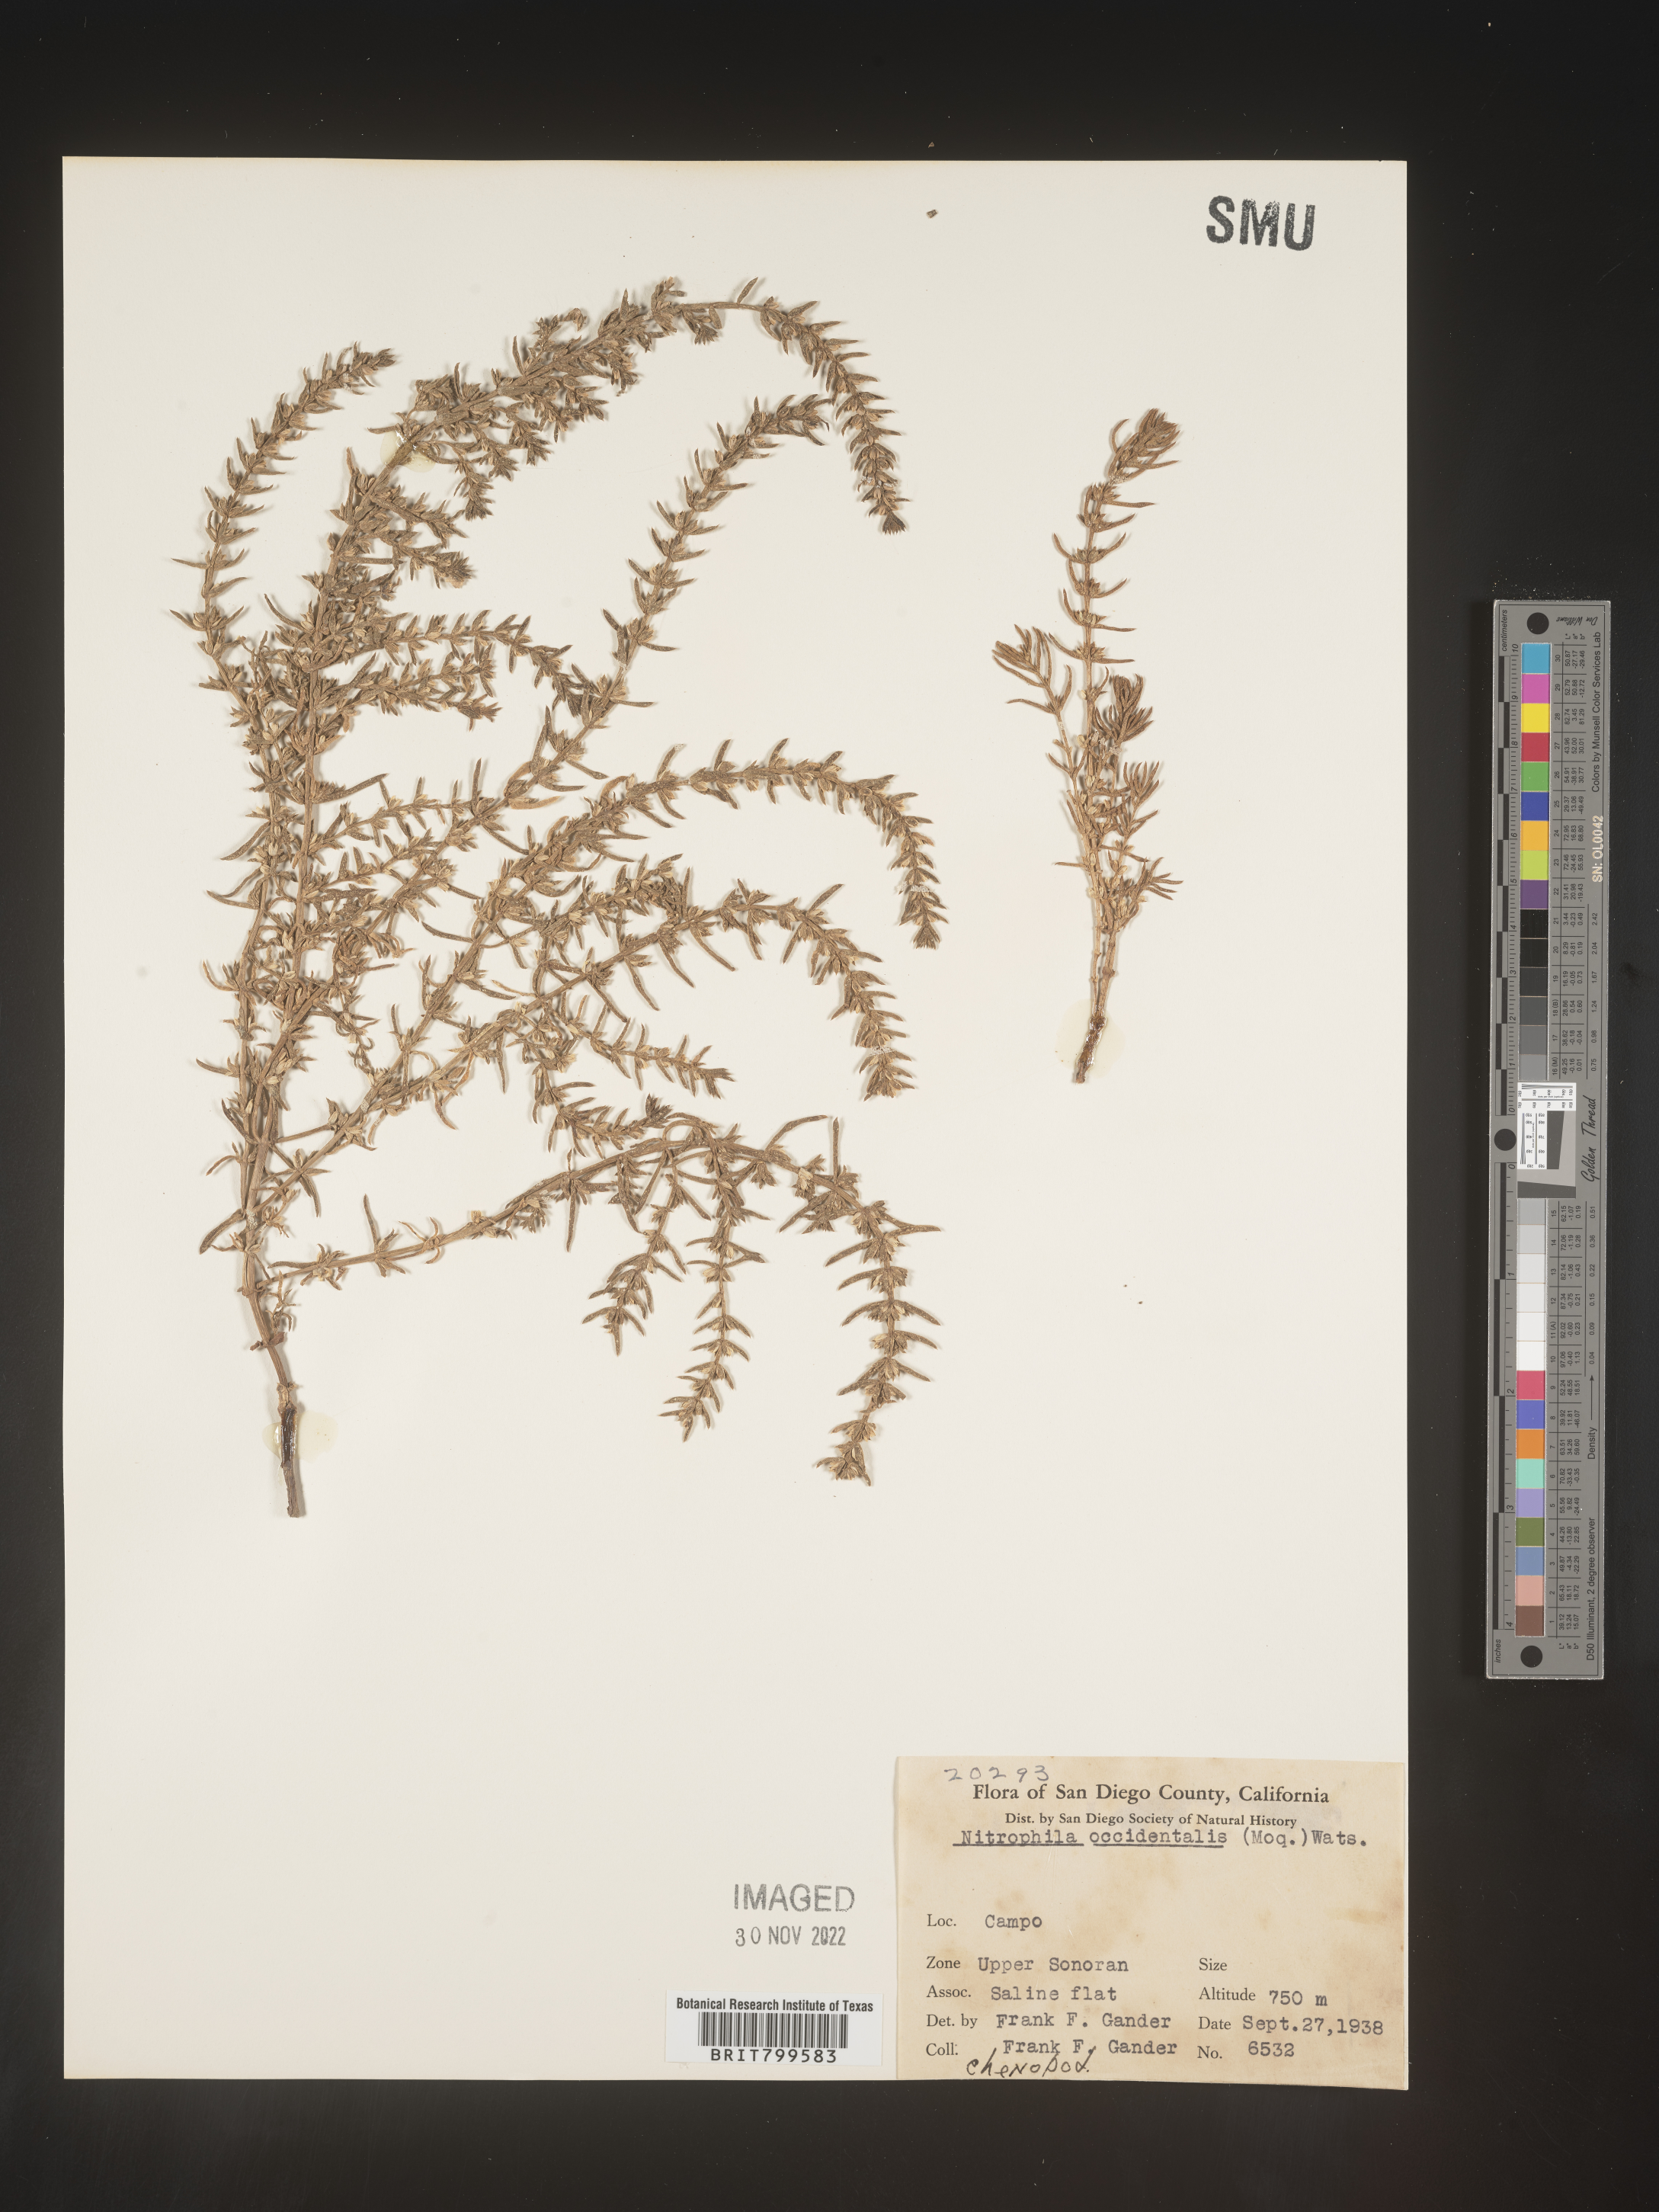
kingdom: Plantae
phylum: Tracheophyta
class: Magnoliopsida
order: Caryophyllales
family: Amaranthaceae
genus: Nitrophila
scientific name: Nitrophila occidentalis
